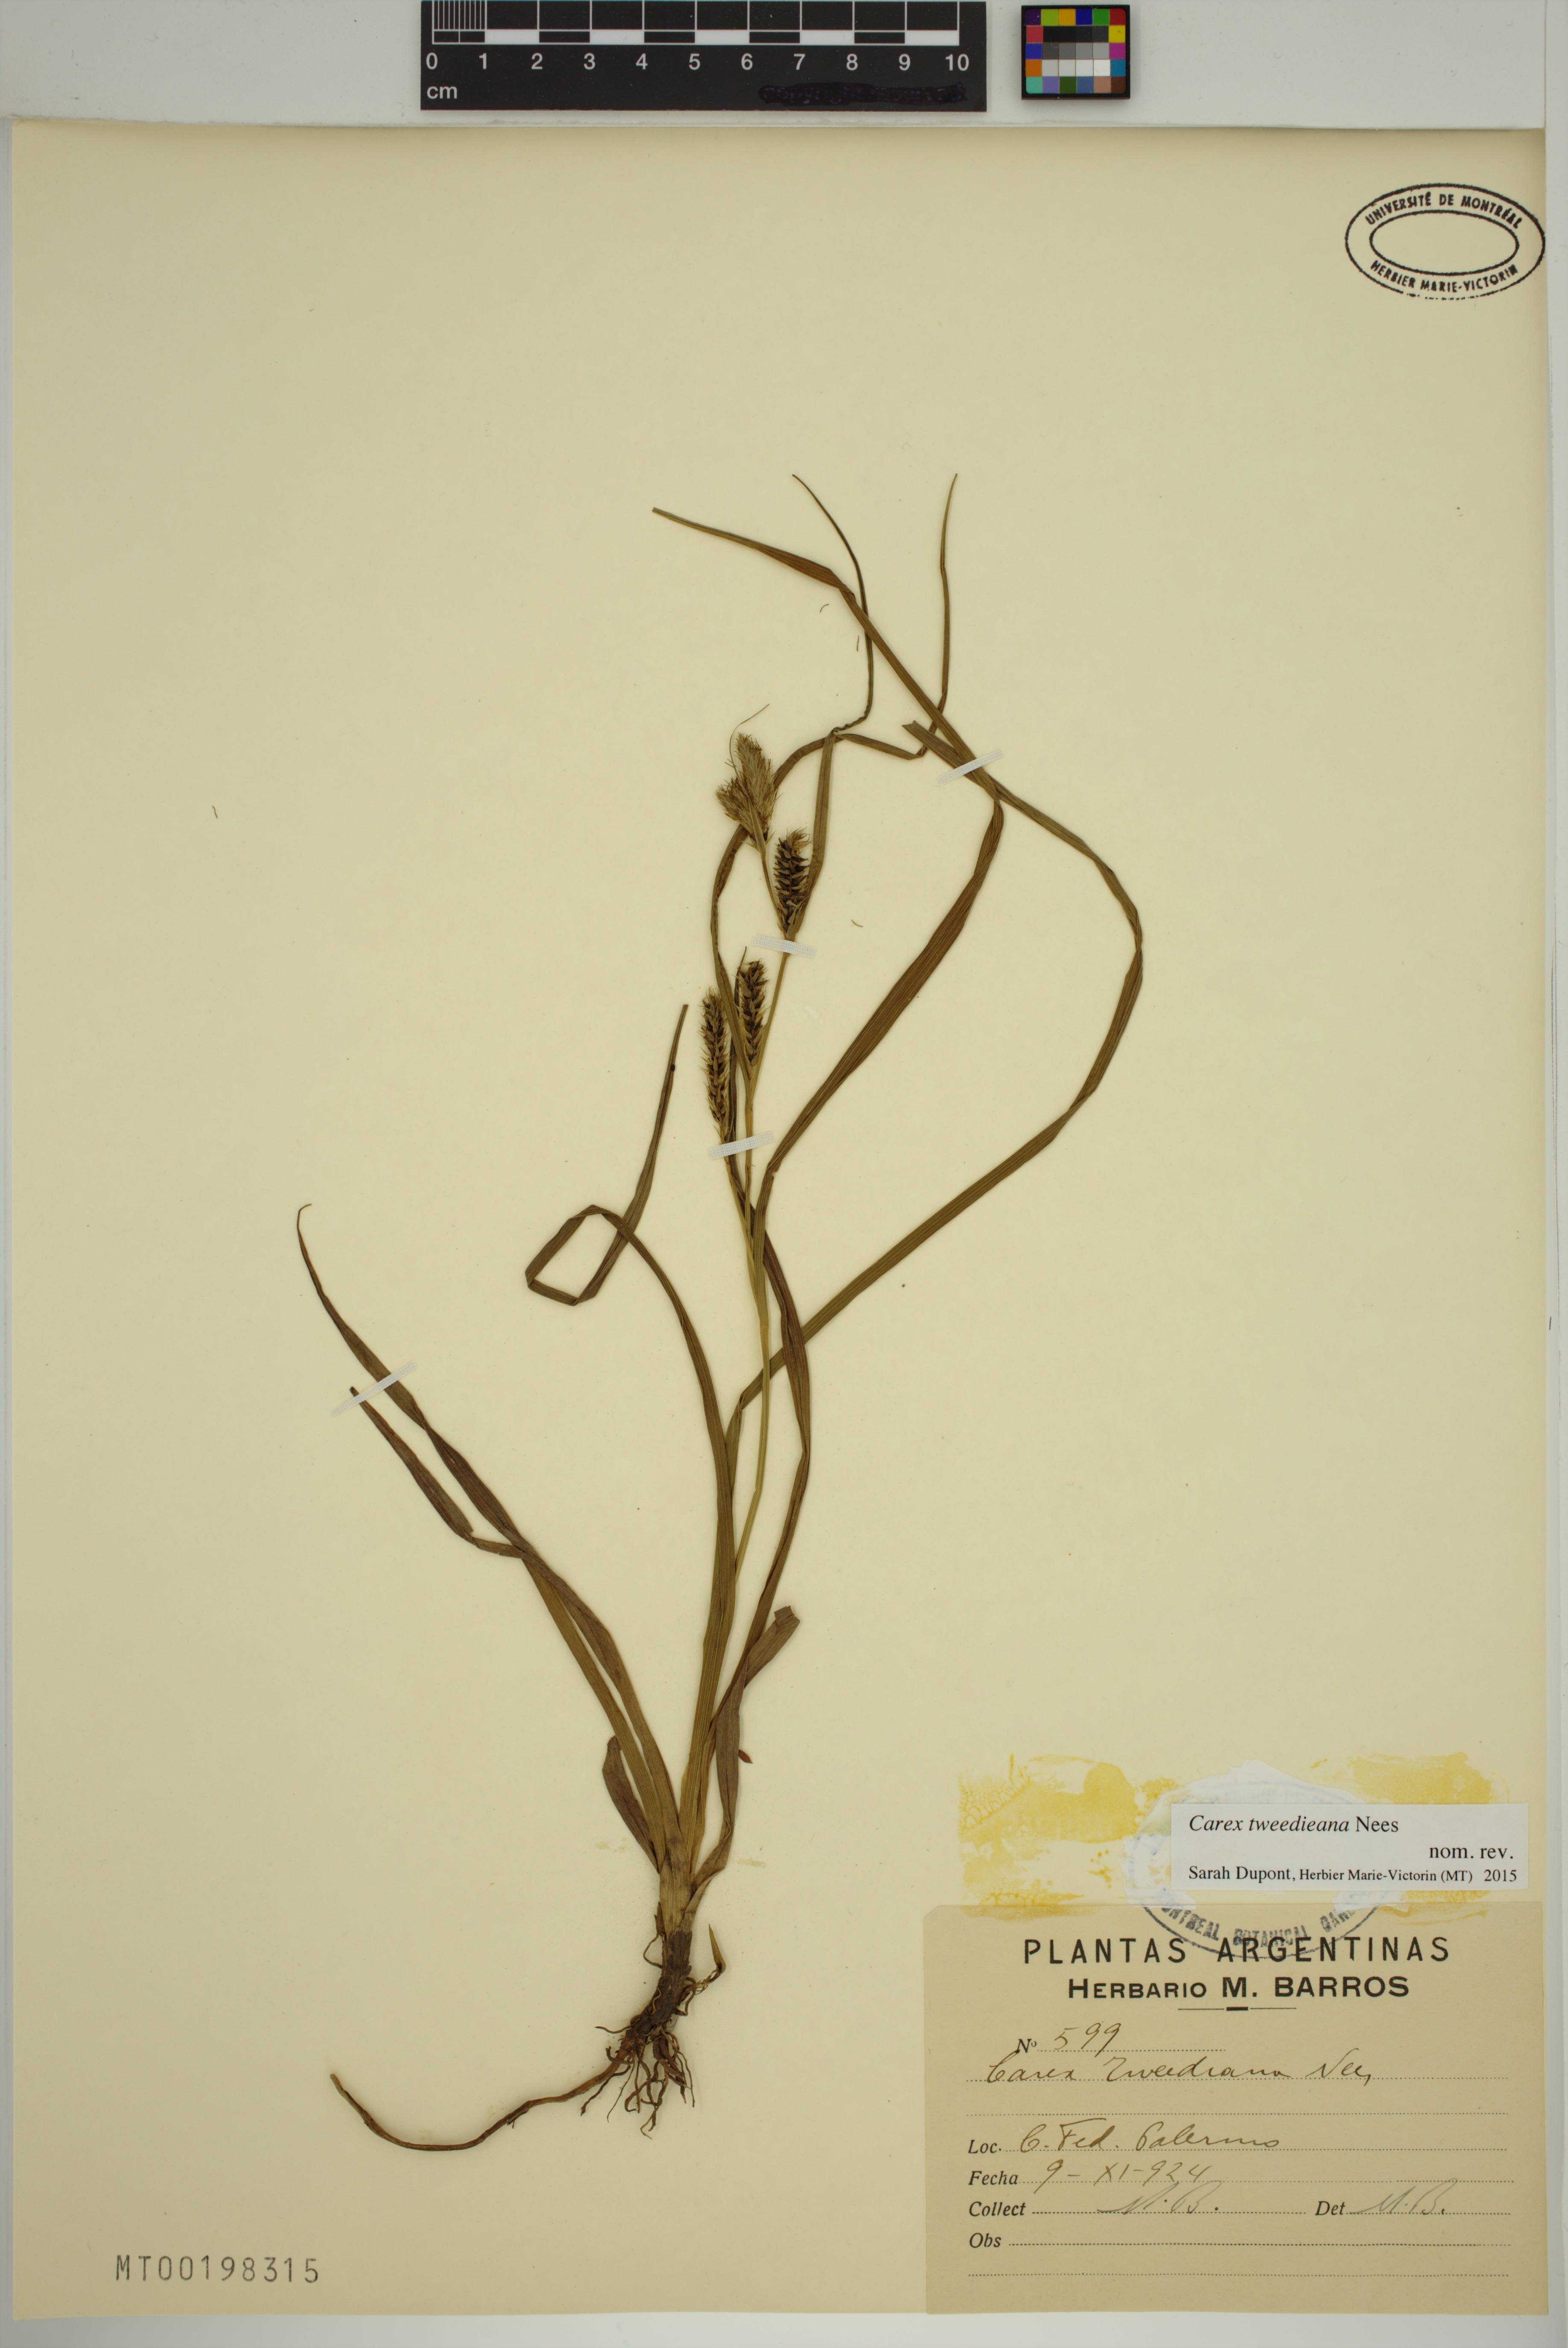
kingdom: Plantae
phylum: Tracheophyta
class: Liliopsida
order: Poales
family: Cyperaceae
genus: Carex
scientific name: Carex tweedieana
